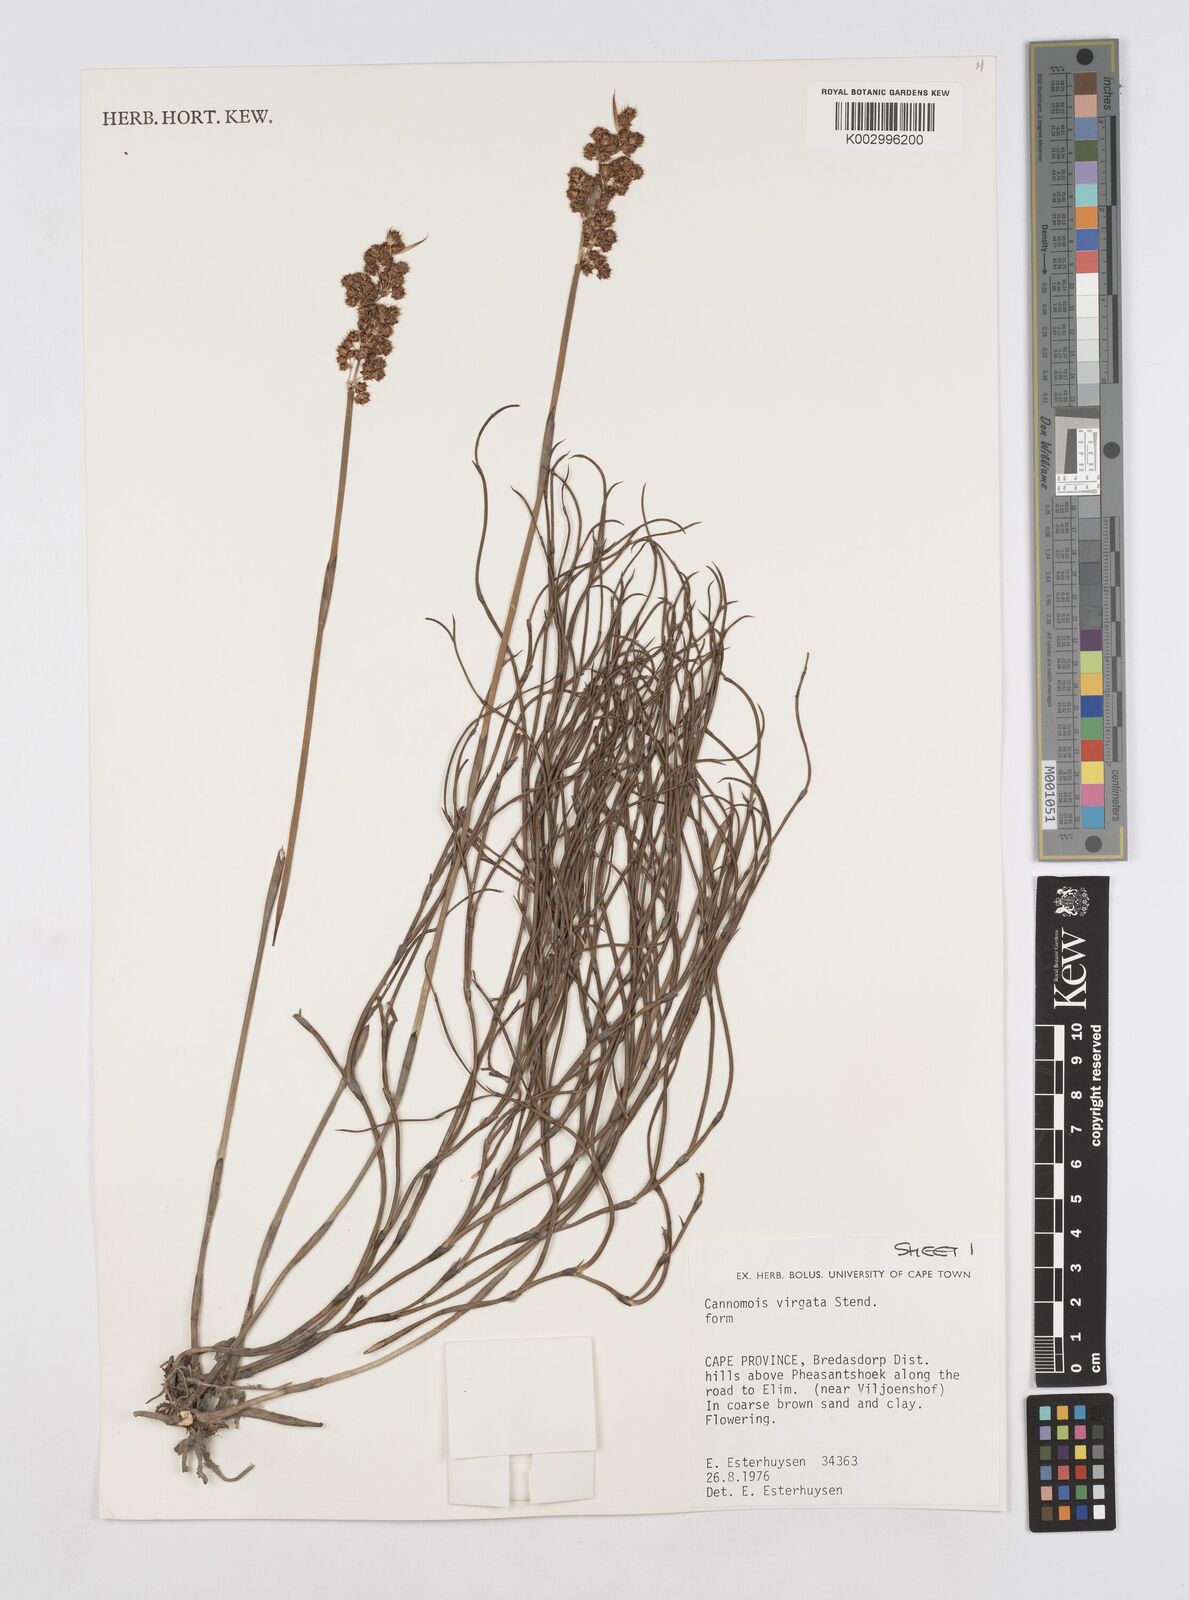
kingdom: Plantae
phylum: Tracheophyta
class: Liliopsida
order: Poales
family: Restionaceae
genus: Cannomois
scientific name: Cannomois virgata
